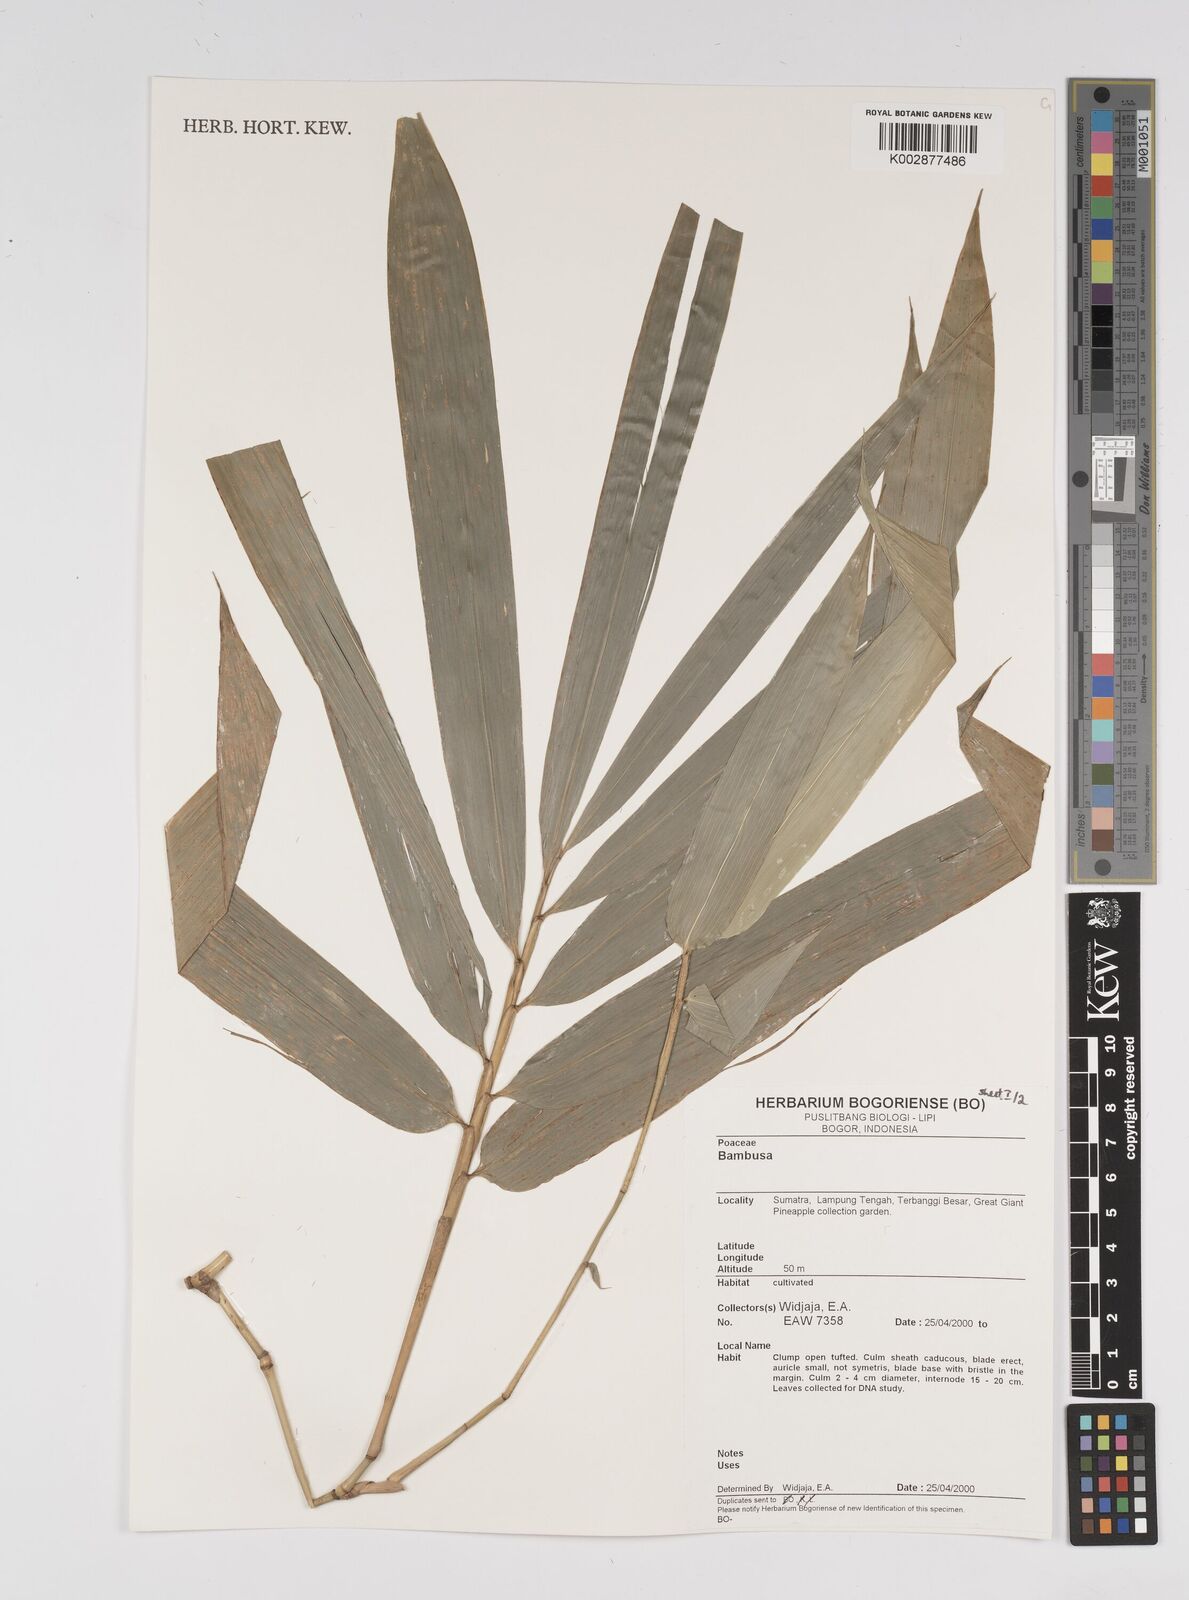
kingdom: Plantae
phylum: Tracheophyta
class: Liliopsida
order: Poales
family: Poaceae
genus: Bambusa
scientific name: Bambusa
